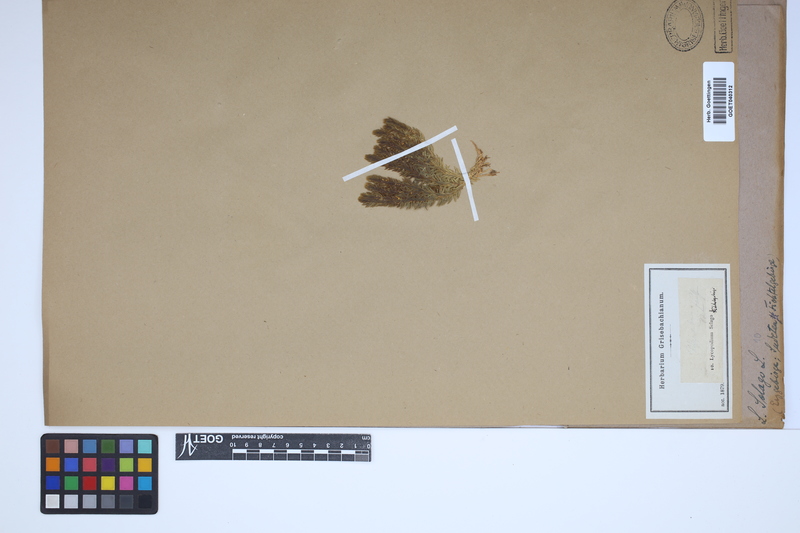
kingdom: Plantae
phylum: Tracheophyta
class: Lycopodiopsida
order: Lycopodiales
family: Lycopodiaceae
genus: Huperzia
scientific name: Huperzia selago
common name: Northern firmoss
